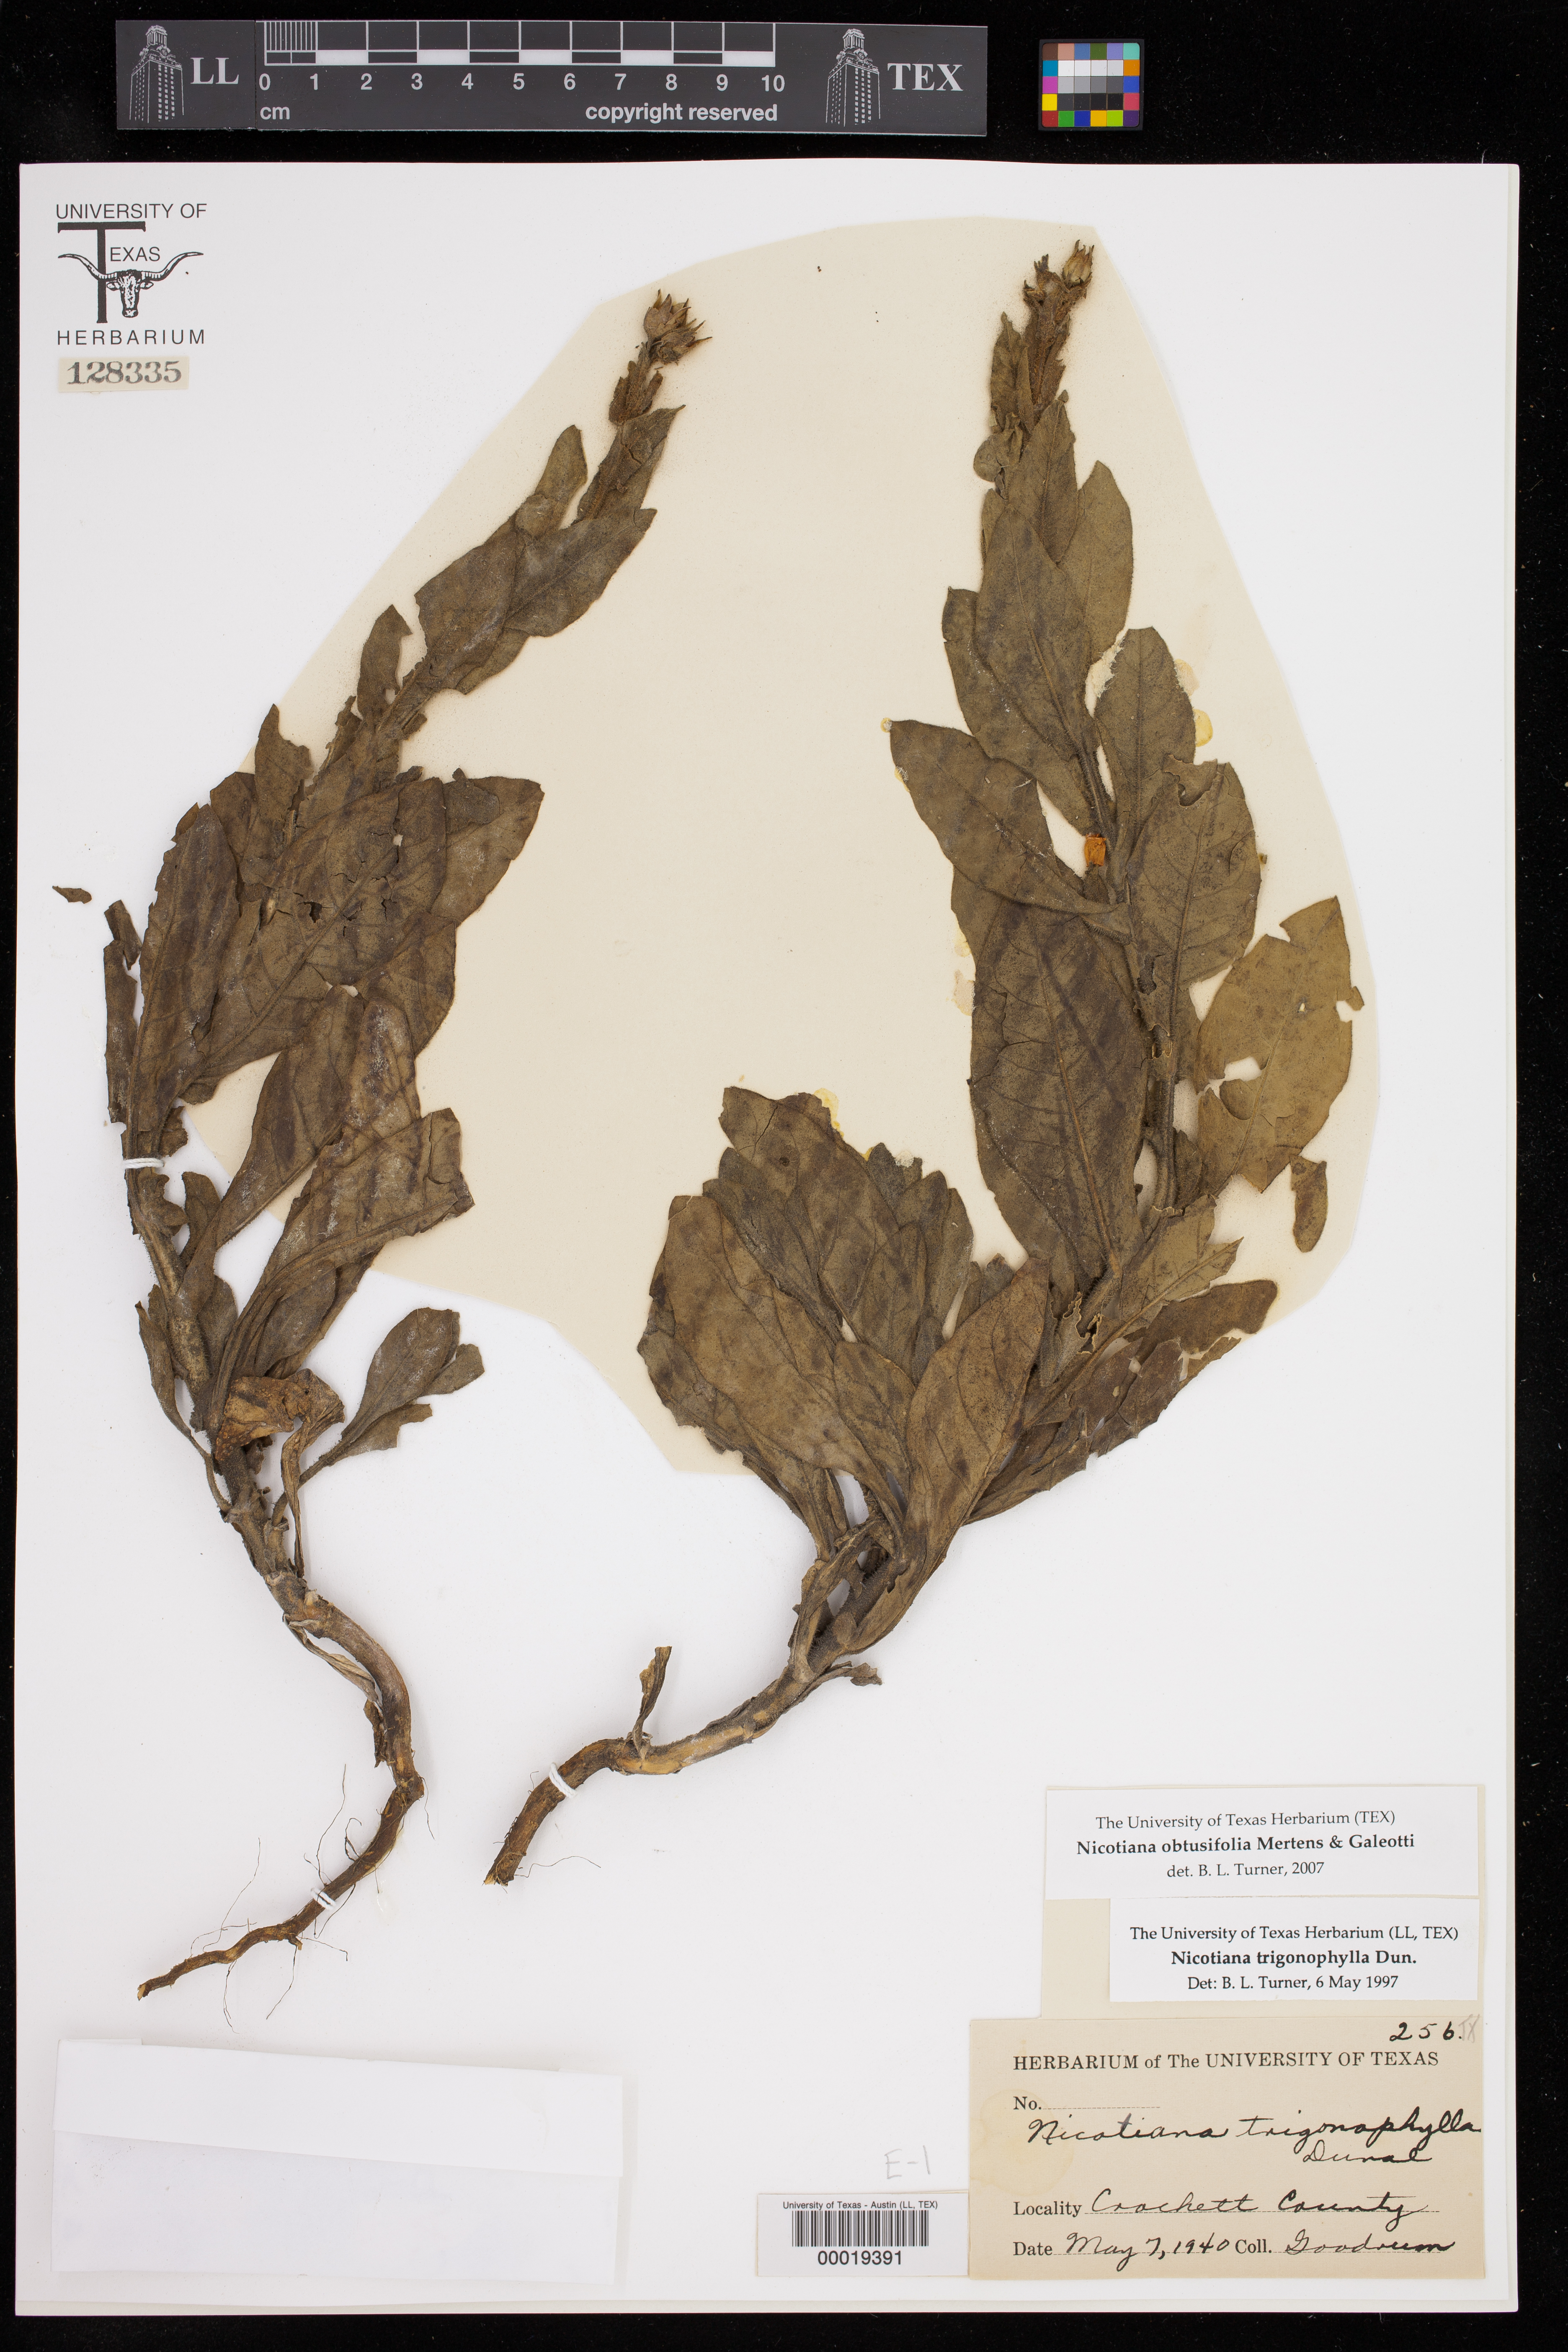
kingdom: Plantae
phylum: Tracheophyta
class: Magnoliopsida
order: Solanales
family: Solanaceae
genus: Nicotiana
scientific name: Nicotiana obtusifolia
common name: Desert tobacco
